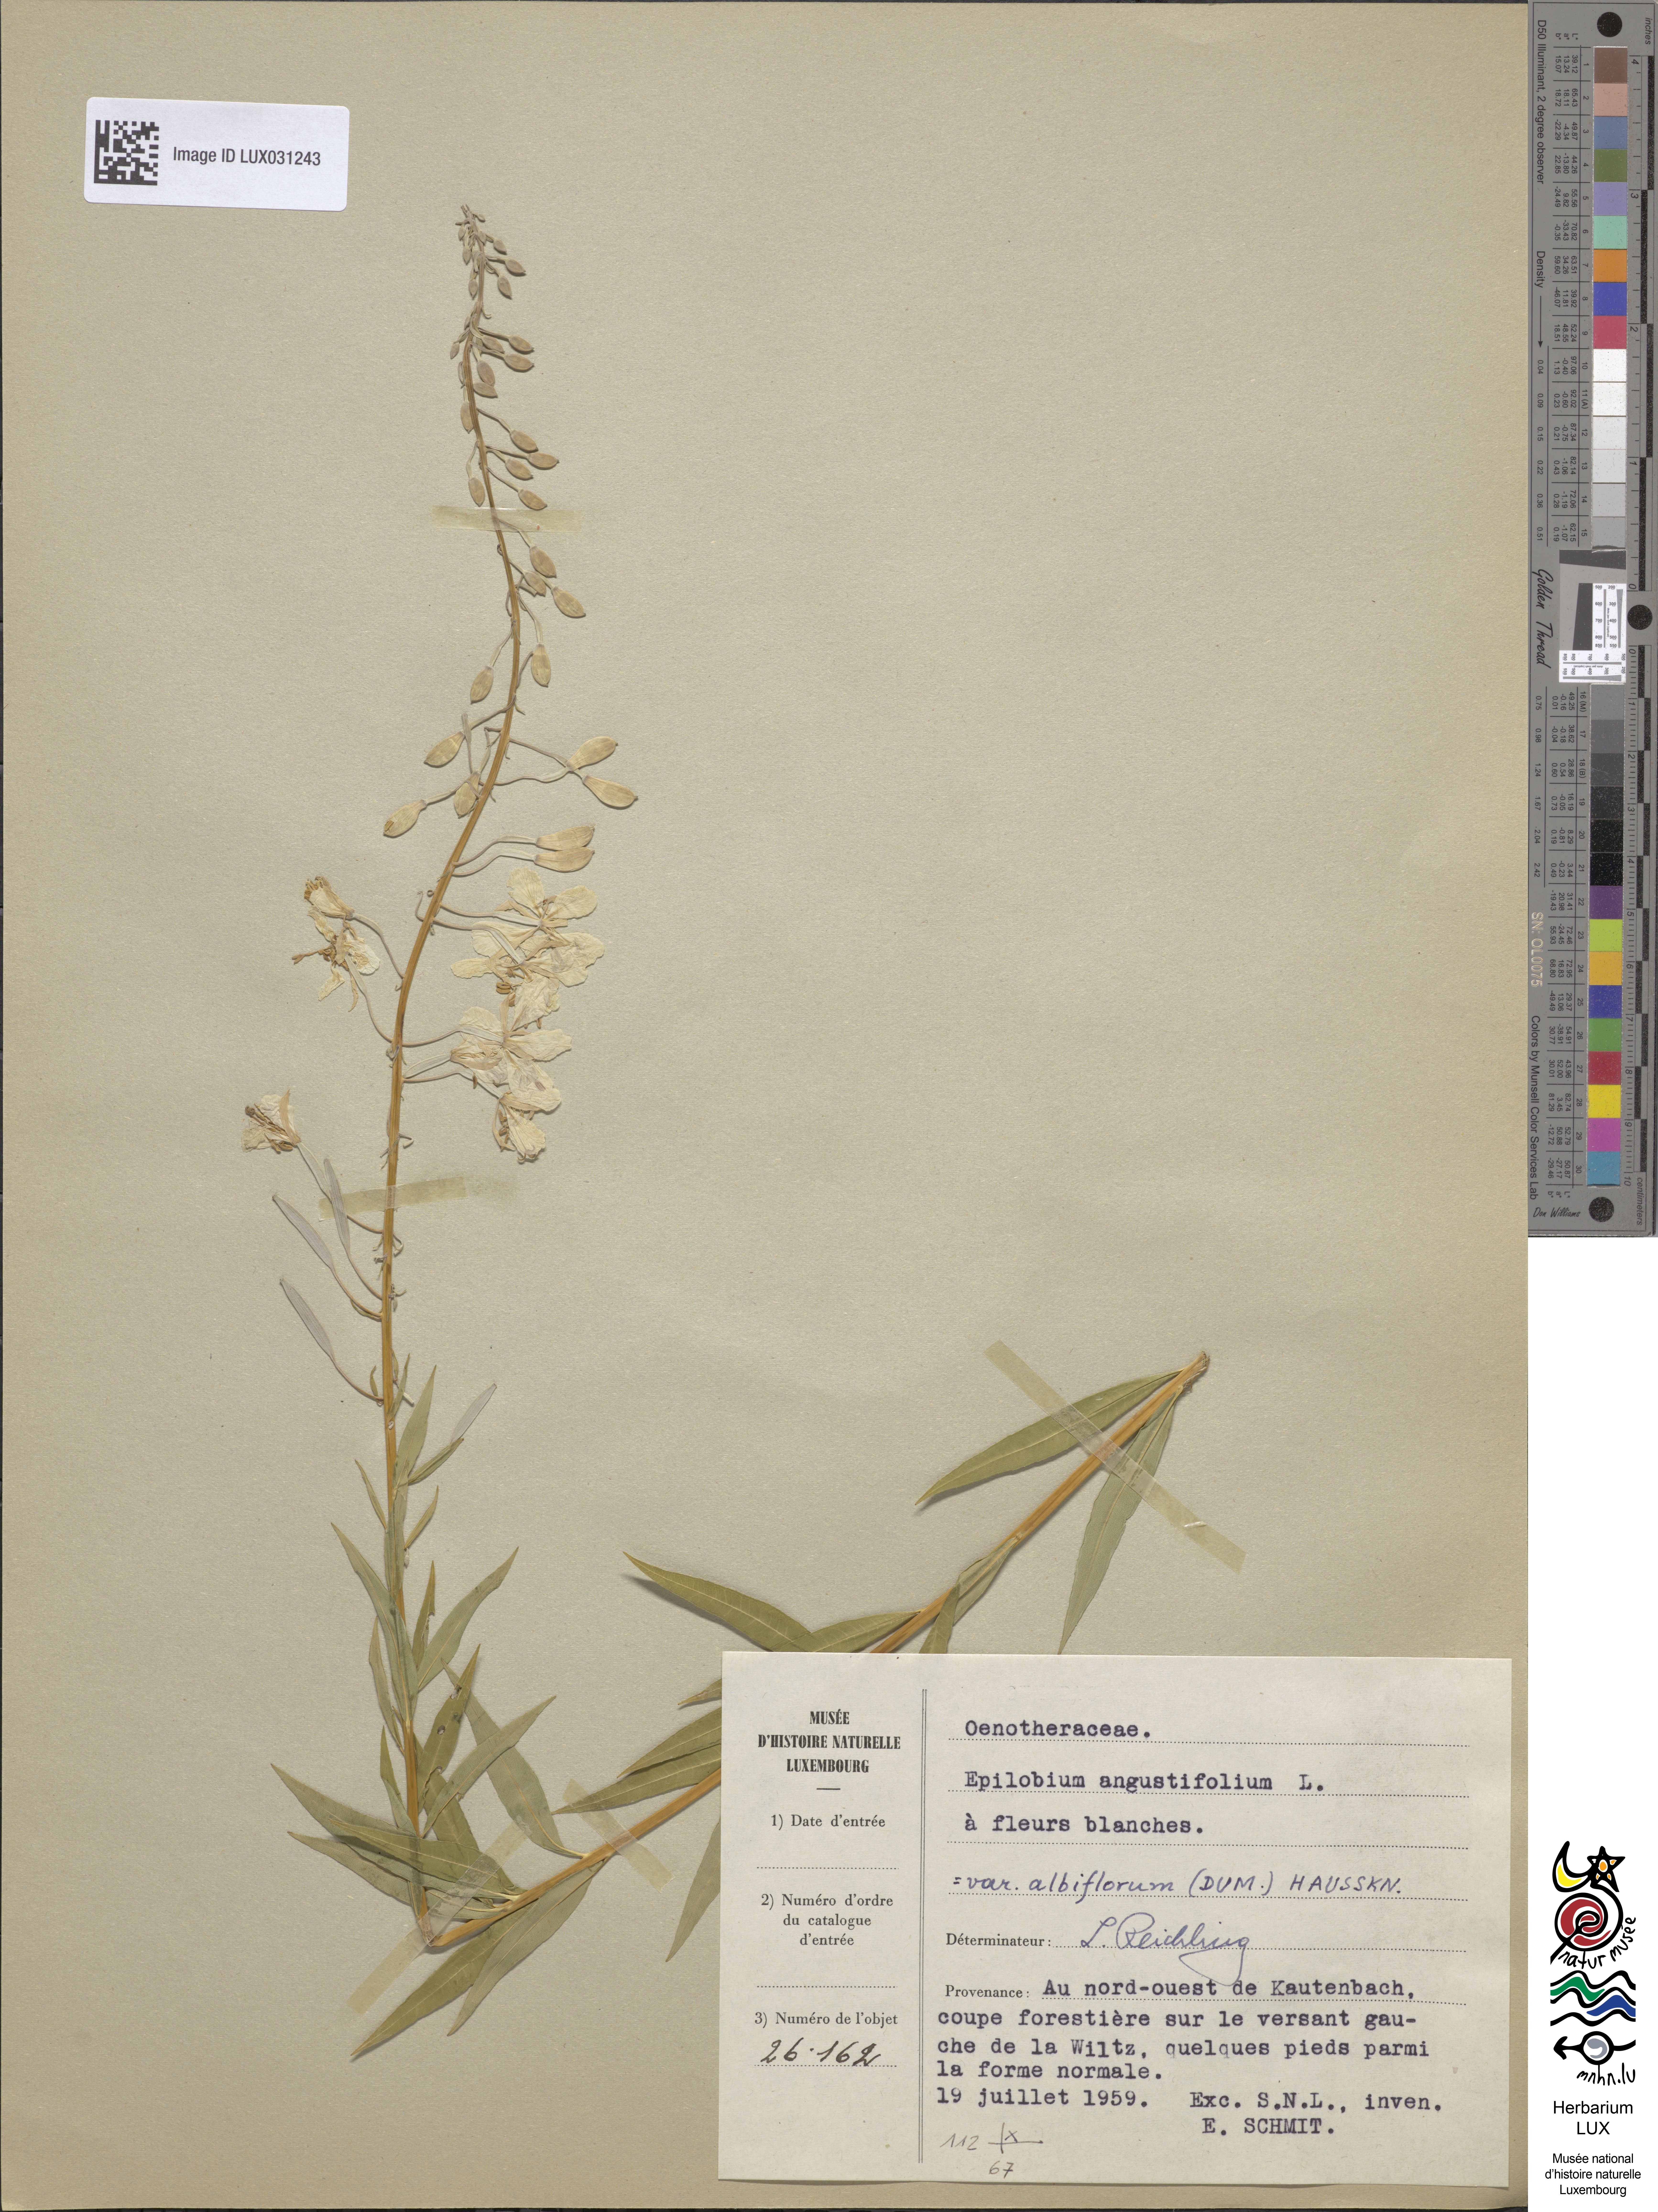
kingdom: Plantae
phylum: Tracheophyta
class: Magnoliopsida
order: Myrtales
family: Onagraceae
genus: Chamaenerion
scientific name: Chamaenerion angustifolium
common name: Fireweed
